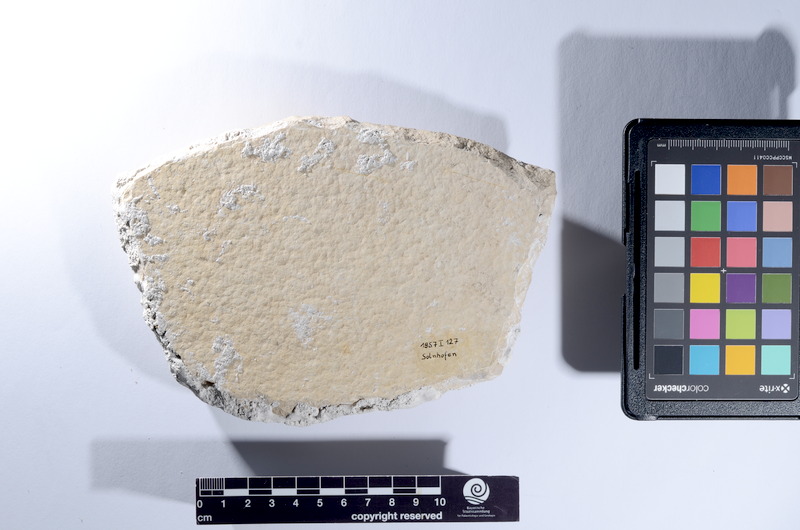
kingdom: Animalia
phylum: Chordata
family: Pholidophoridae
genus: Pholidophorus
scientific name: Pholidophorus
